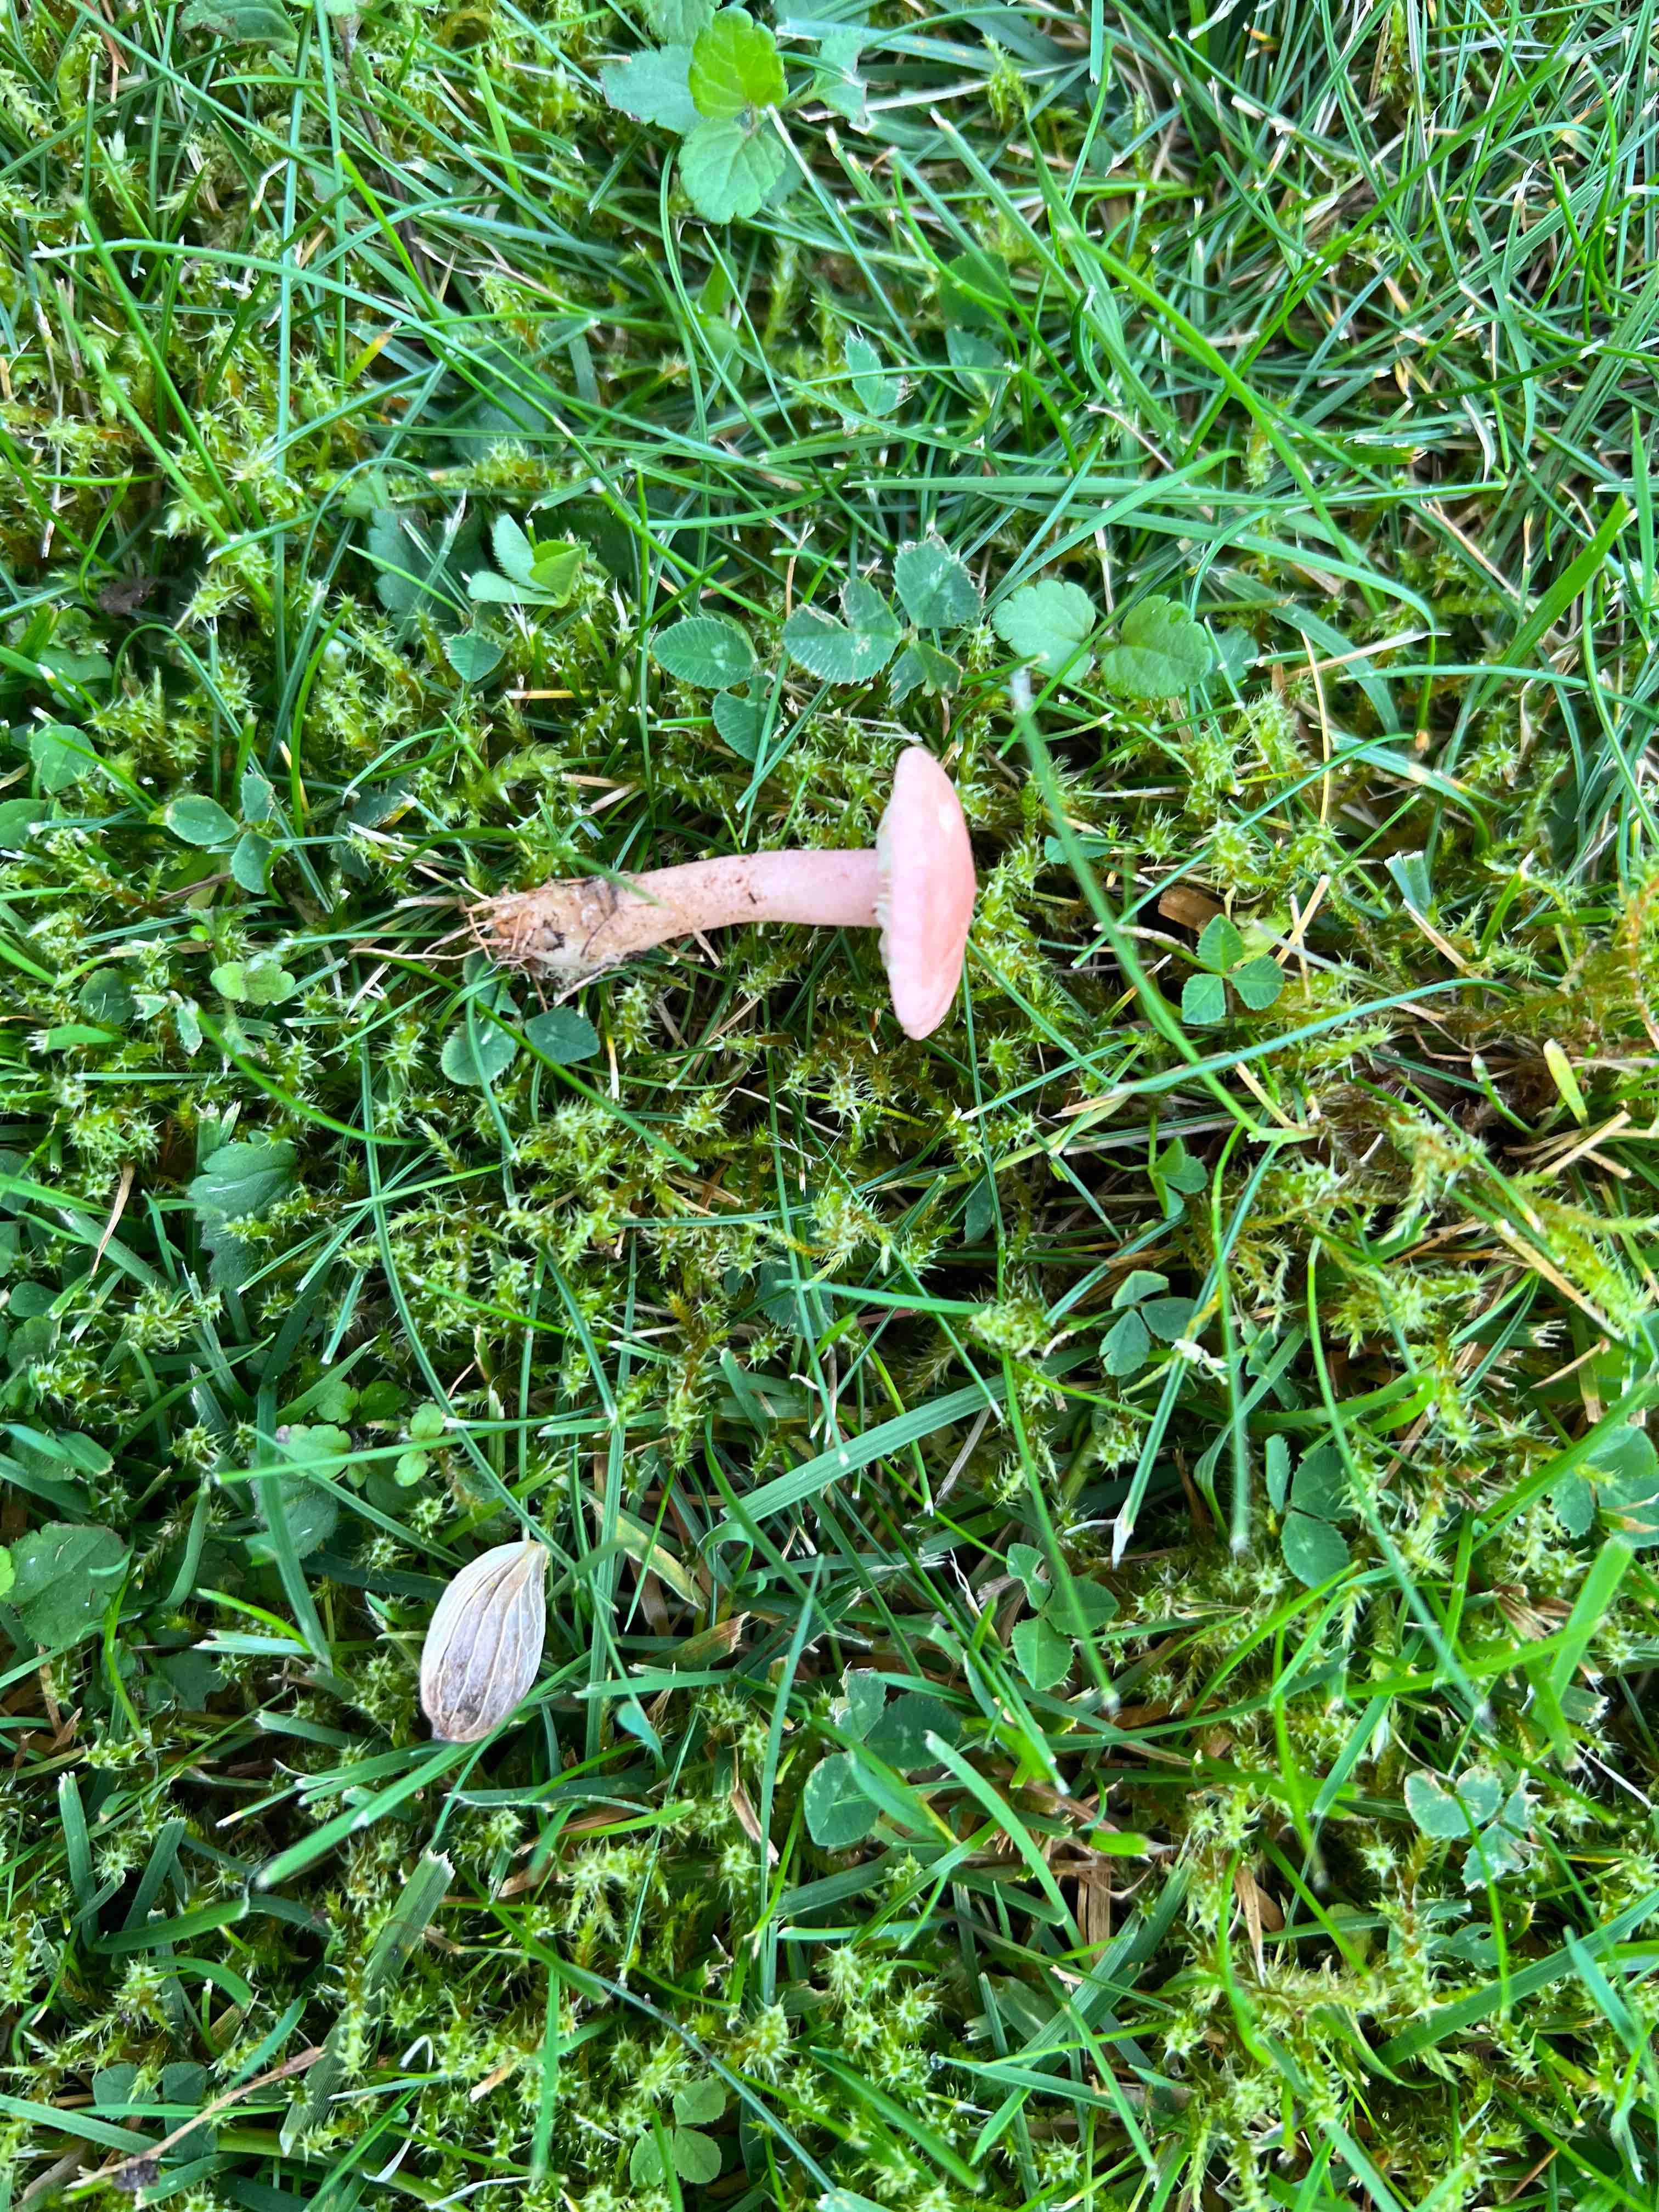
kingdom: Fungi
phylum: Basidiomycota
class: Agaricomycetes
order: Agaricales
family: Lyophyllaceae
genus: Calocybe
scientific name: Calocybe carnea
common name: rosa fagerhat
